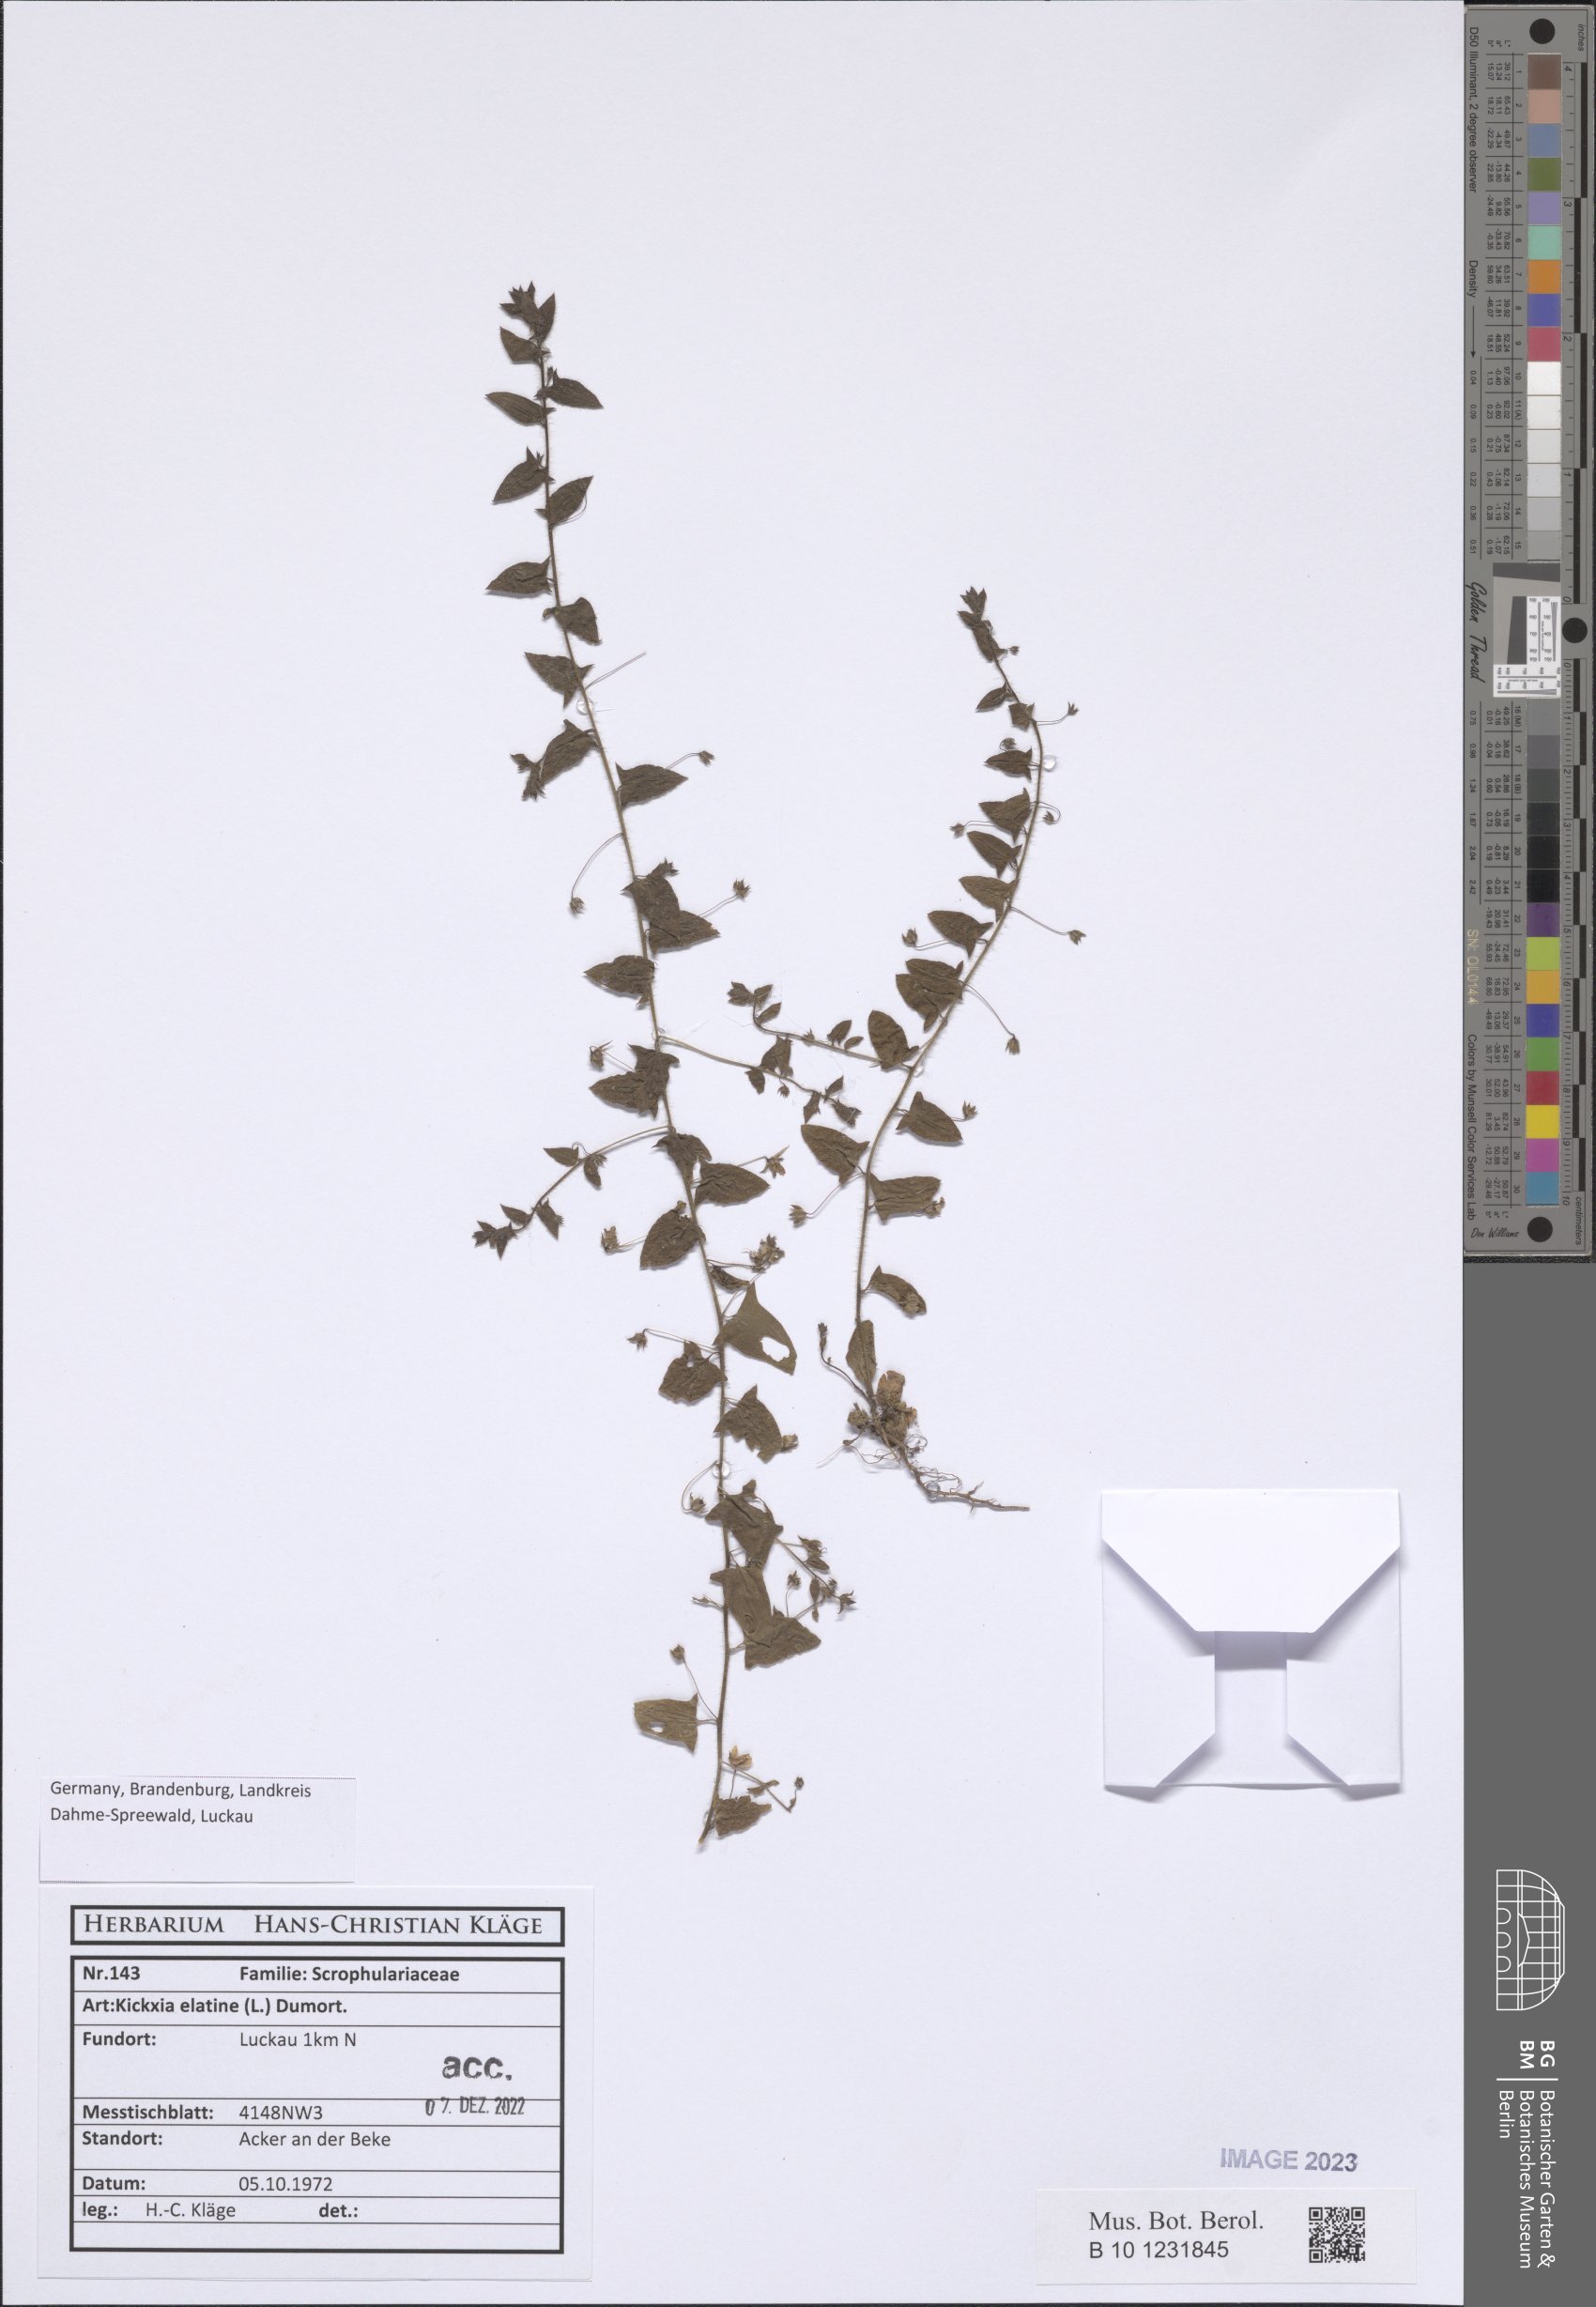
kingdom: Plantae
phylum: Tracheophyta
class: Magnoliopsida
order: Lamiales
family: Plantaginaceae
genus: Kickxia
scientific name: Kickxia elatine
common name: Sharp-leaved fluellen
